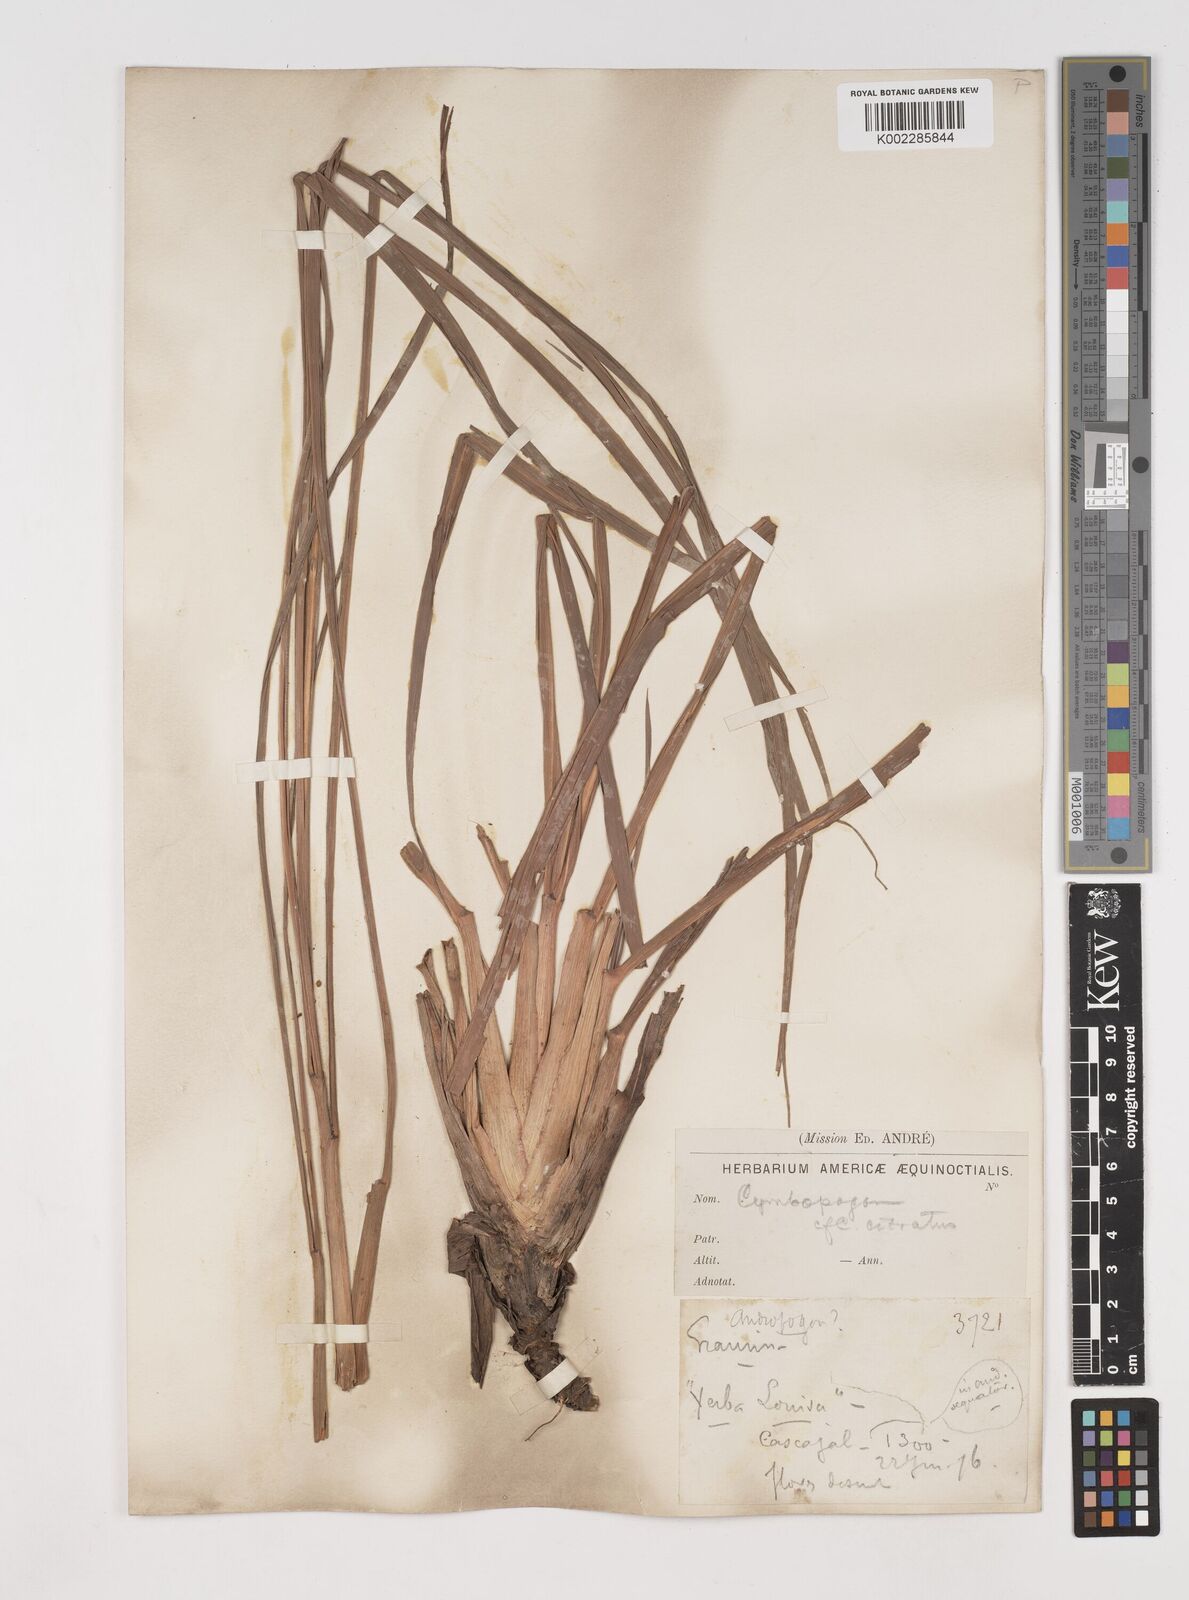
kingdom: Plantae
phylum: Tracheophyta
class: Liliopsida
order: Poales
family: Poaceae
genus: Cymbopogon
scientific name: Cymbopogon citratus
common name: Lemon grass
